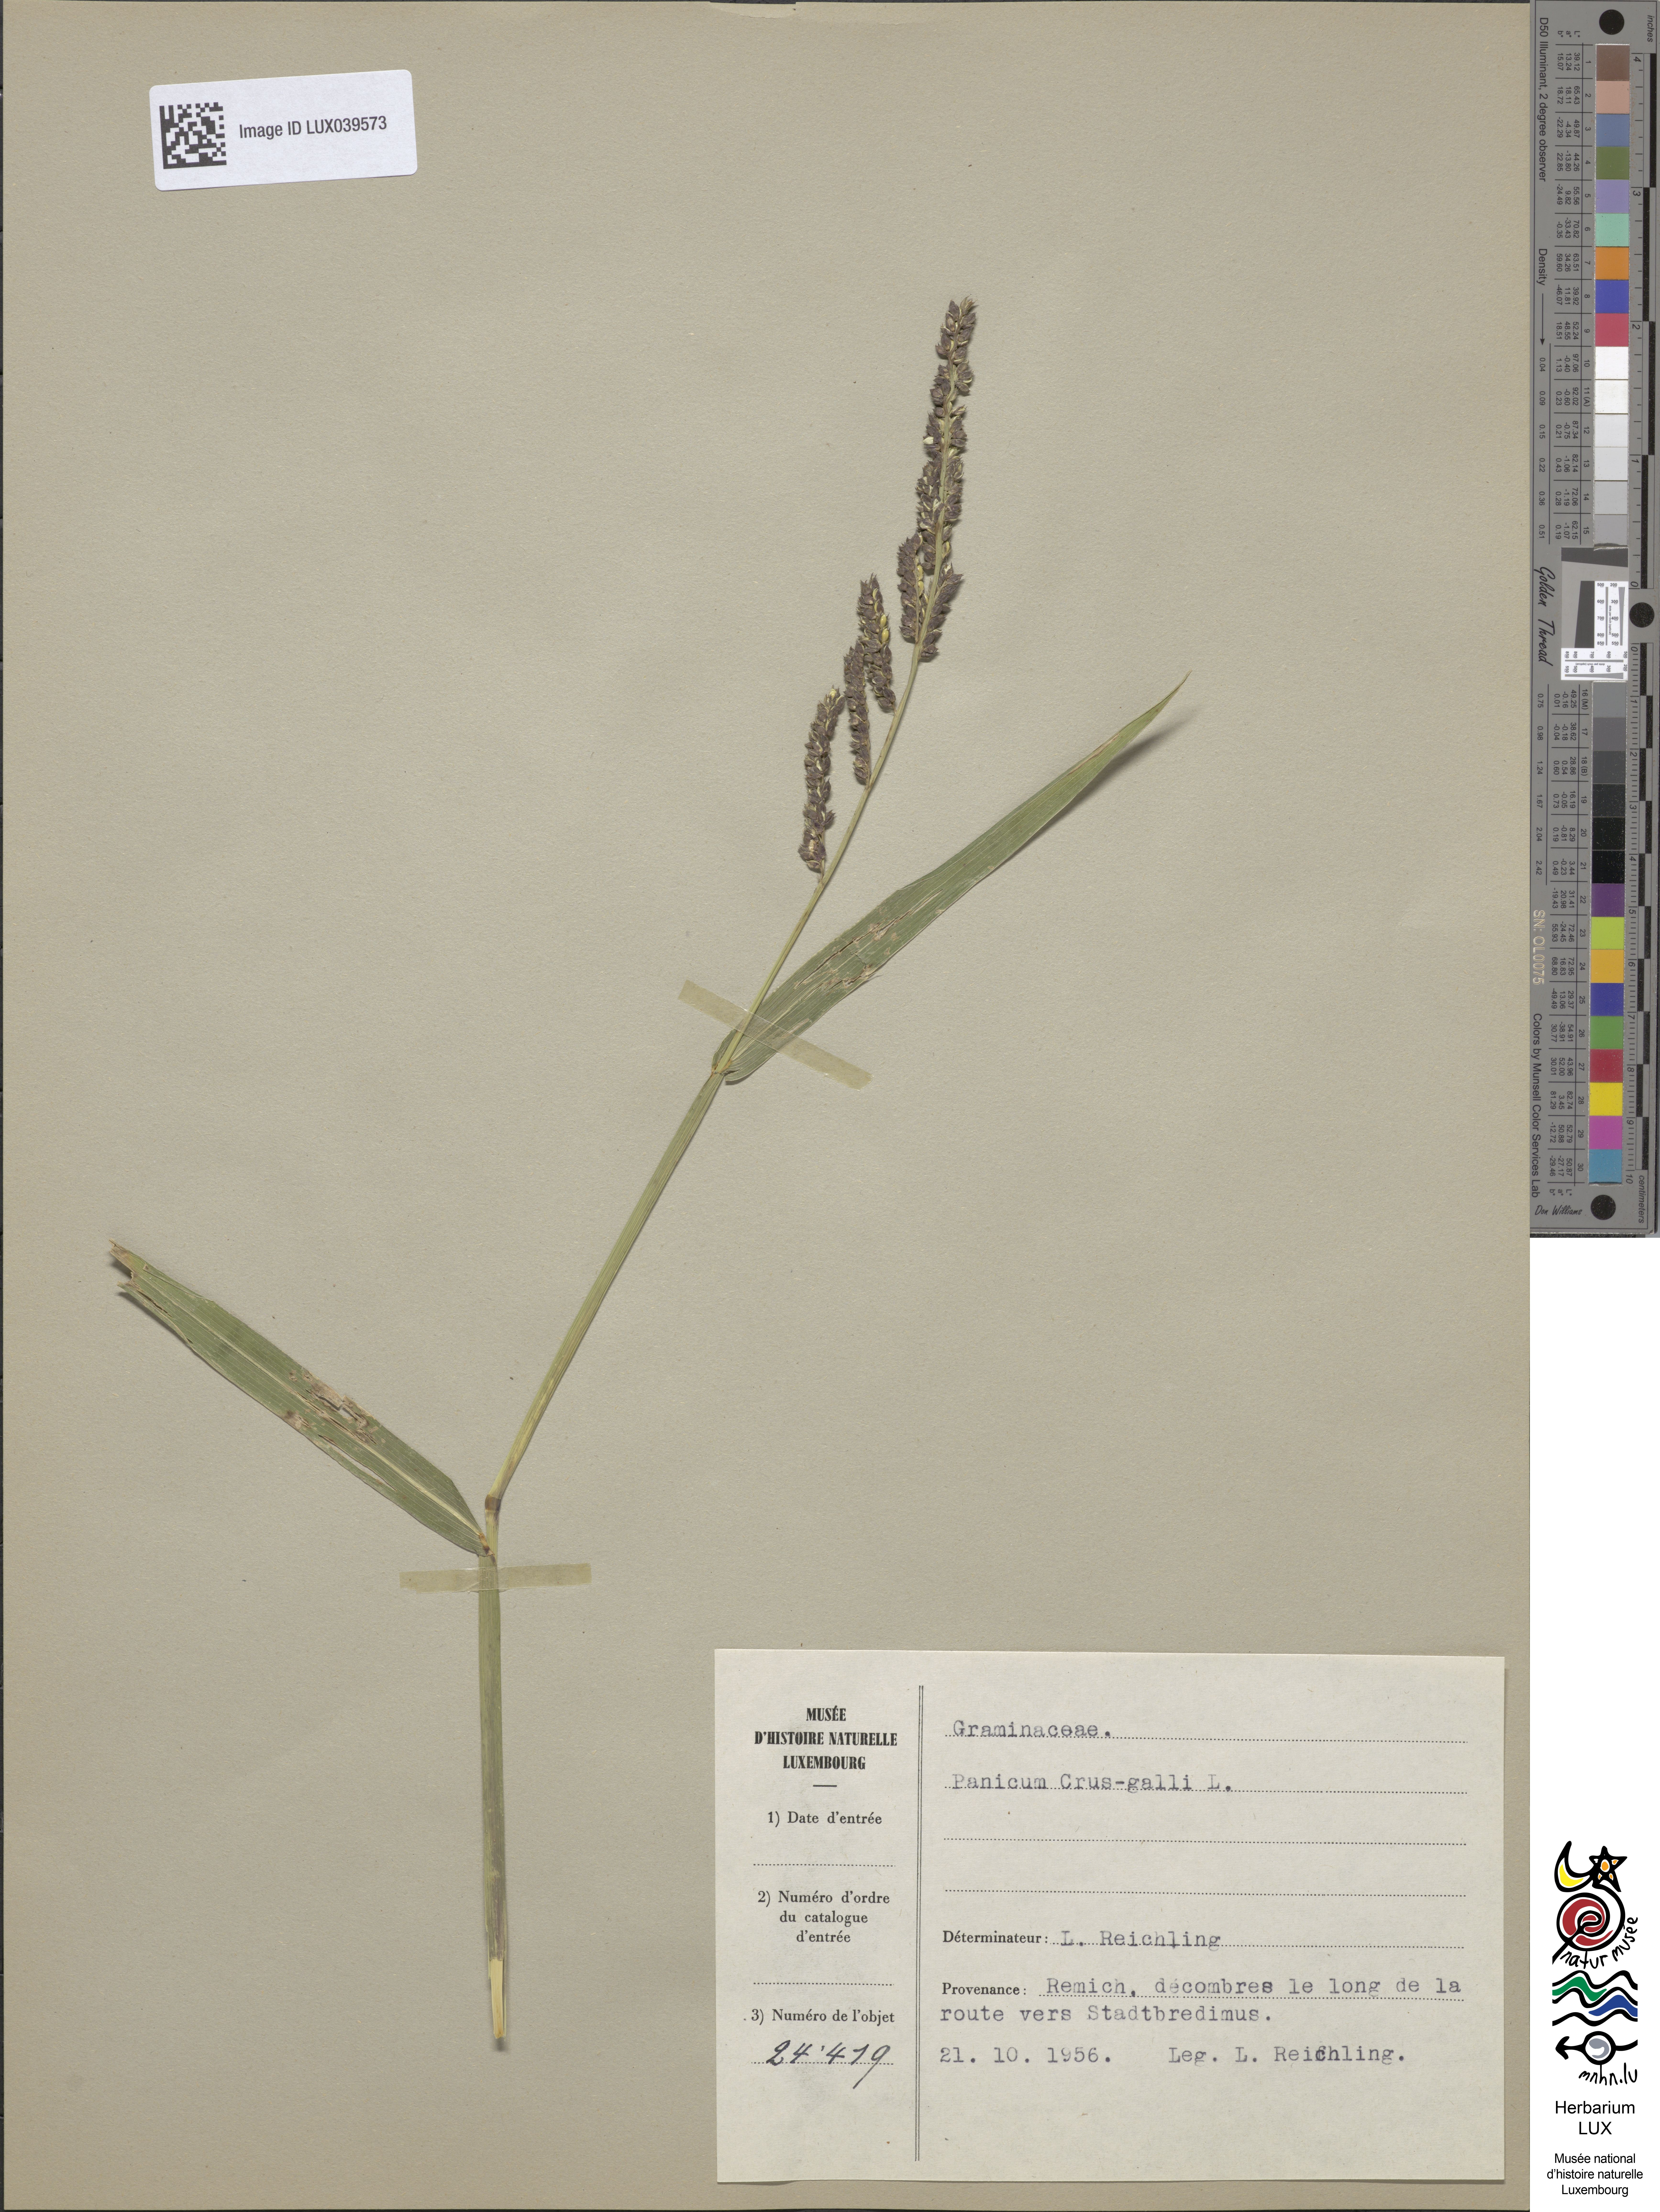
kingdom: Plantae
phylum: Tracheophyta
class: Liliopsida
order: Poales
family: Poaceae
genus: Echinochloa
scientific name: Echinochloa crus-galli
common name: Cockspur
